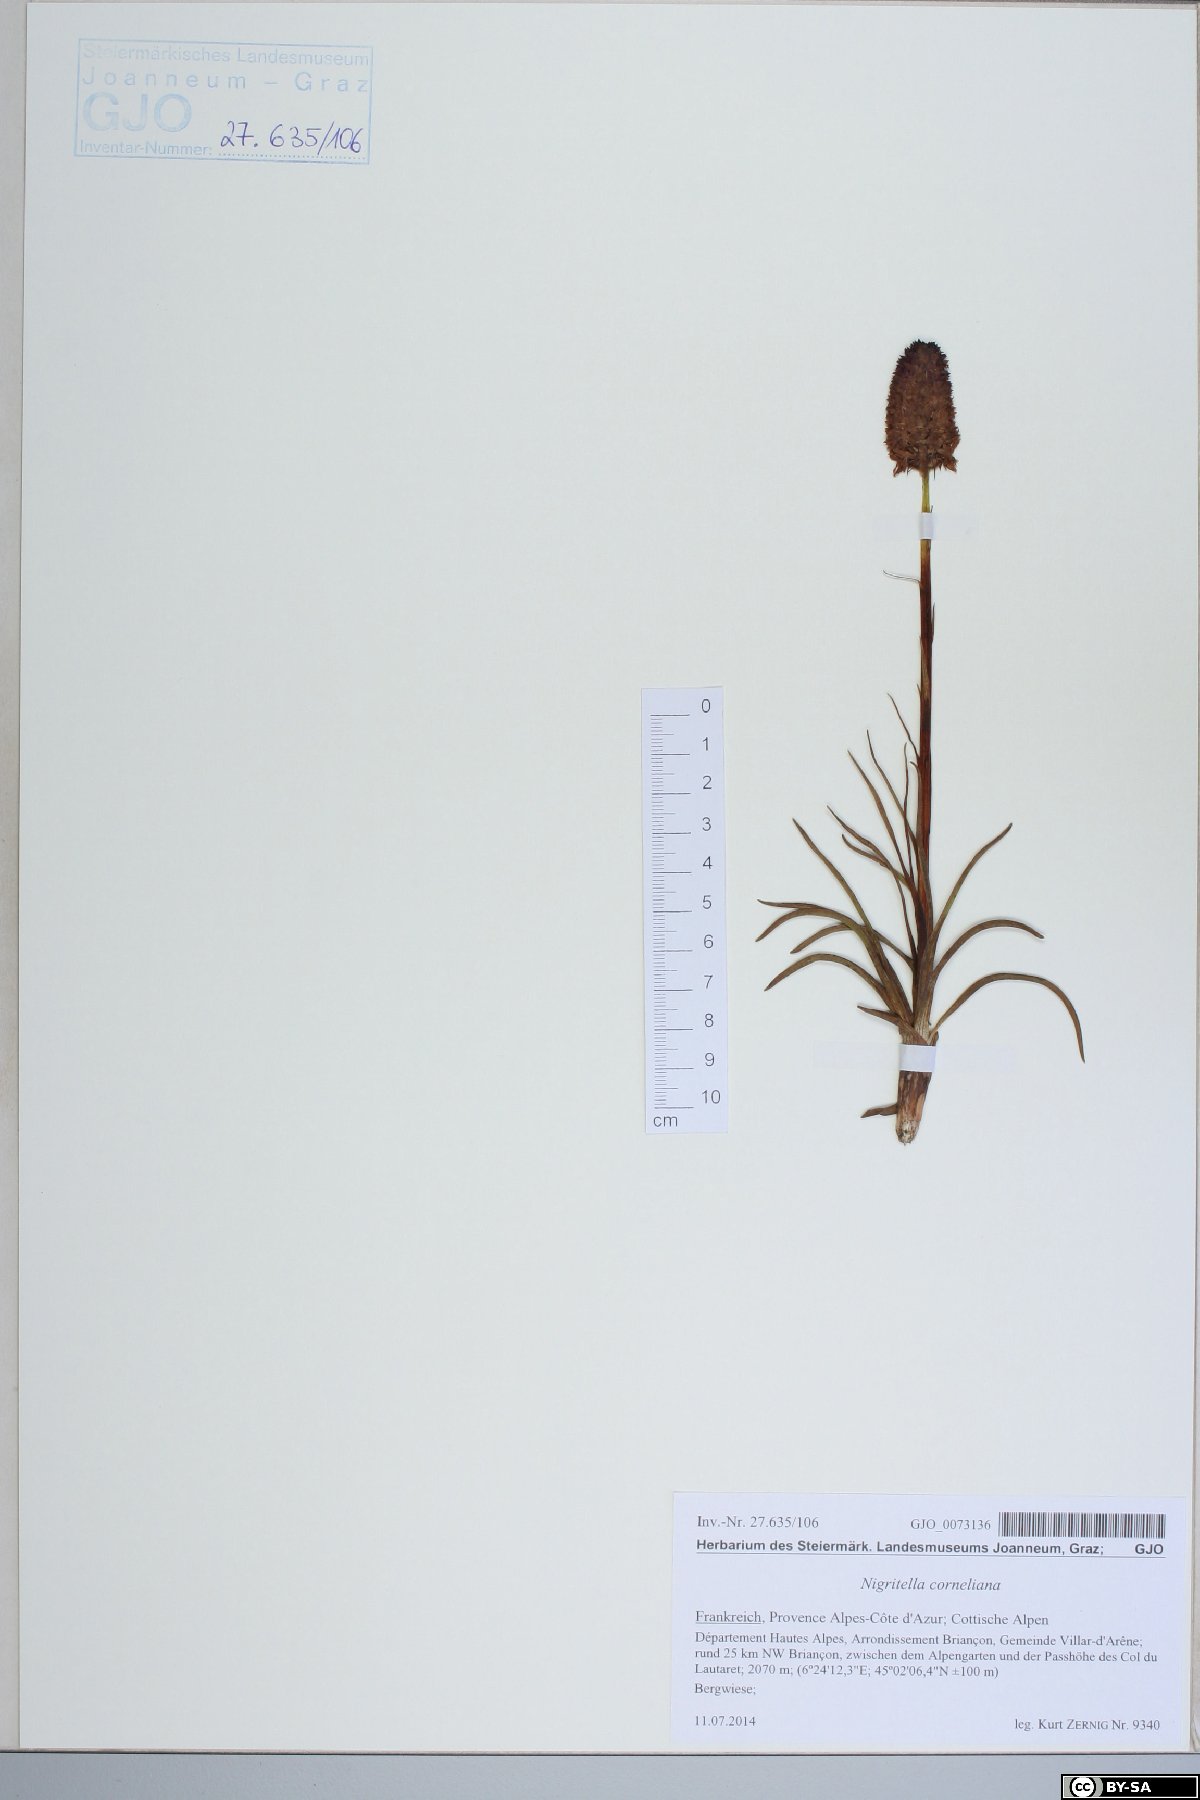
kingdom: Plantae
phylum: Tracheophyta
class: Liliopsida
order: Asparagales
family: Orchidaceae
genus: Gymnadenia
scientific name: Gymnadenia corneliana
